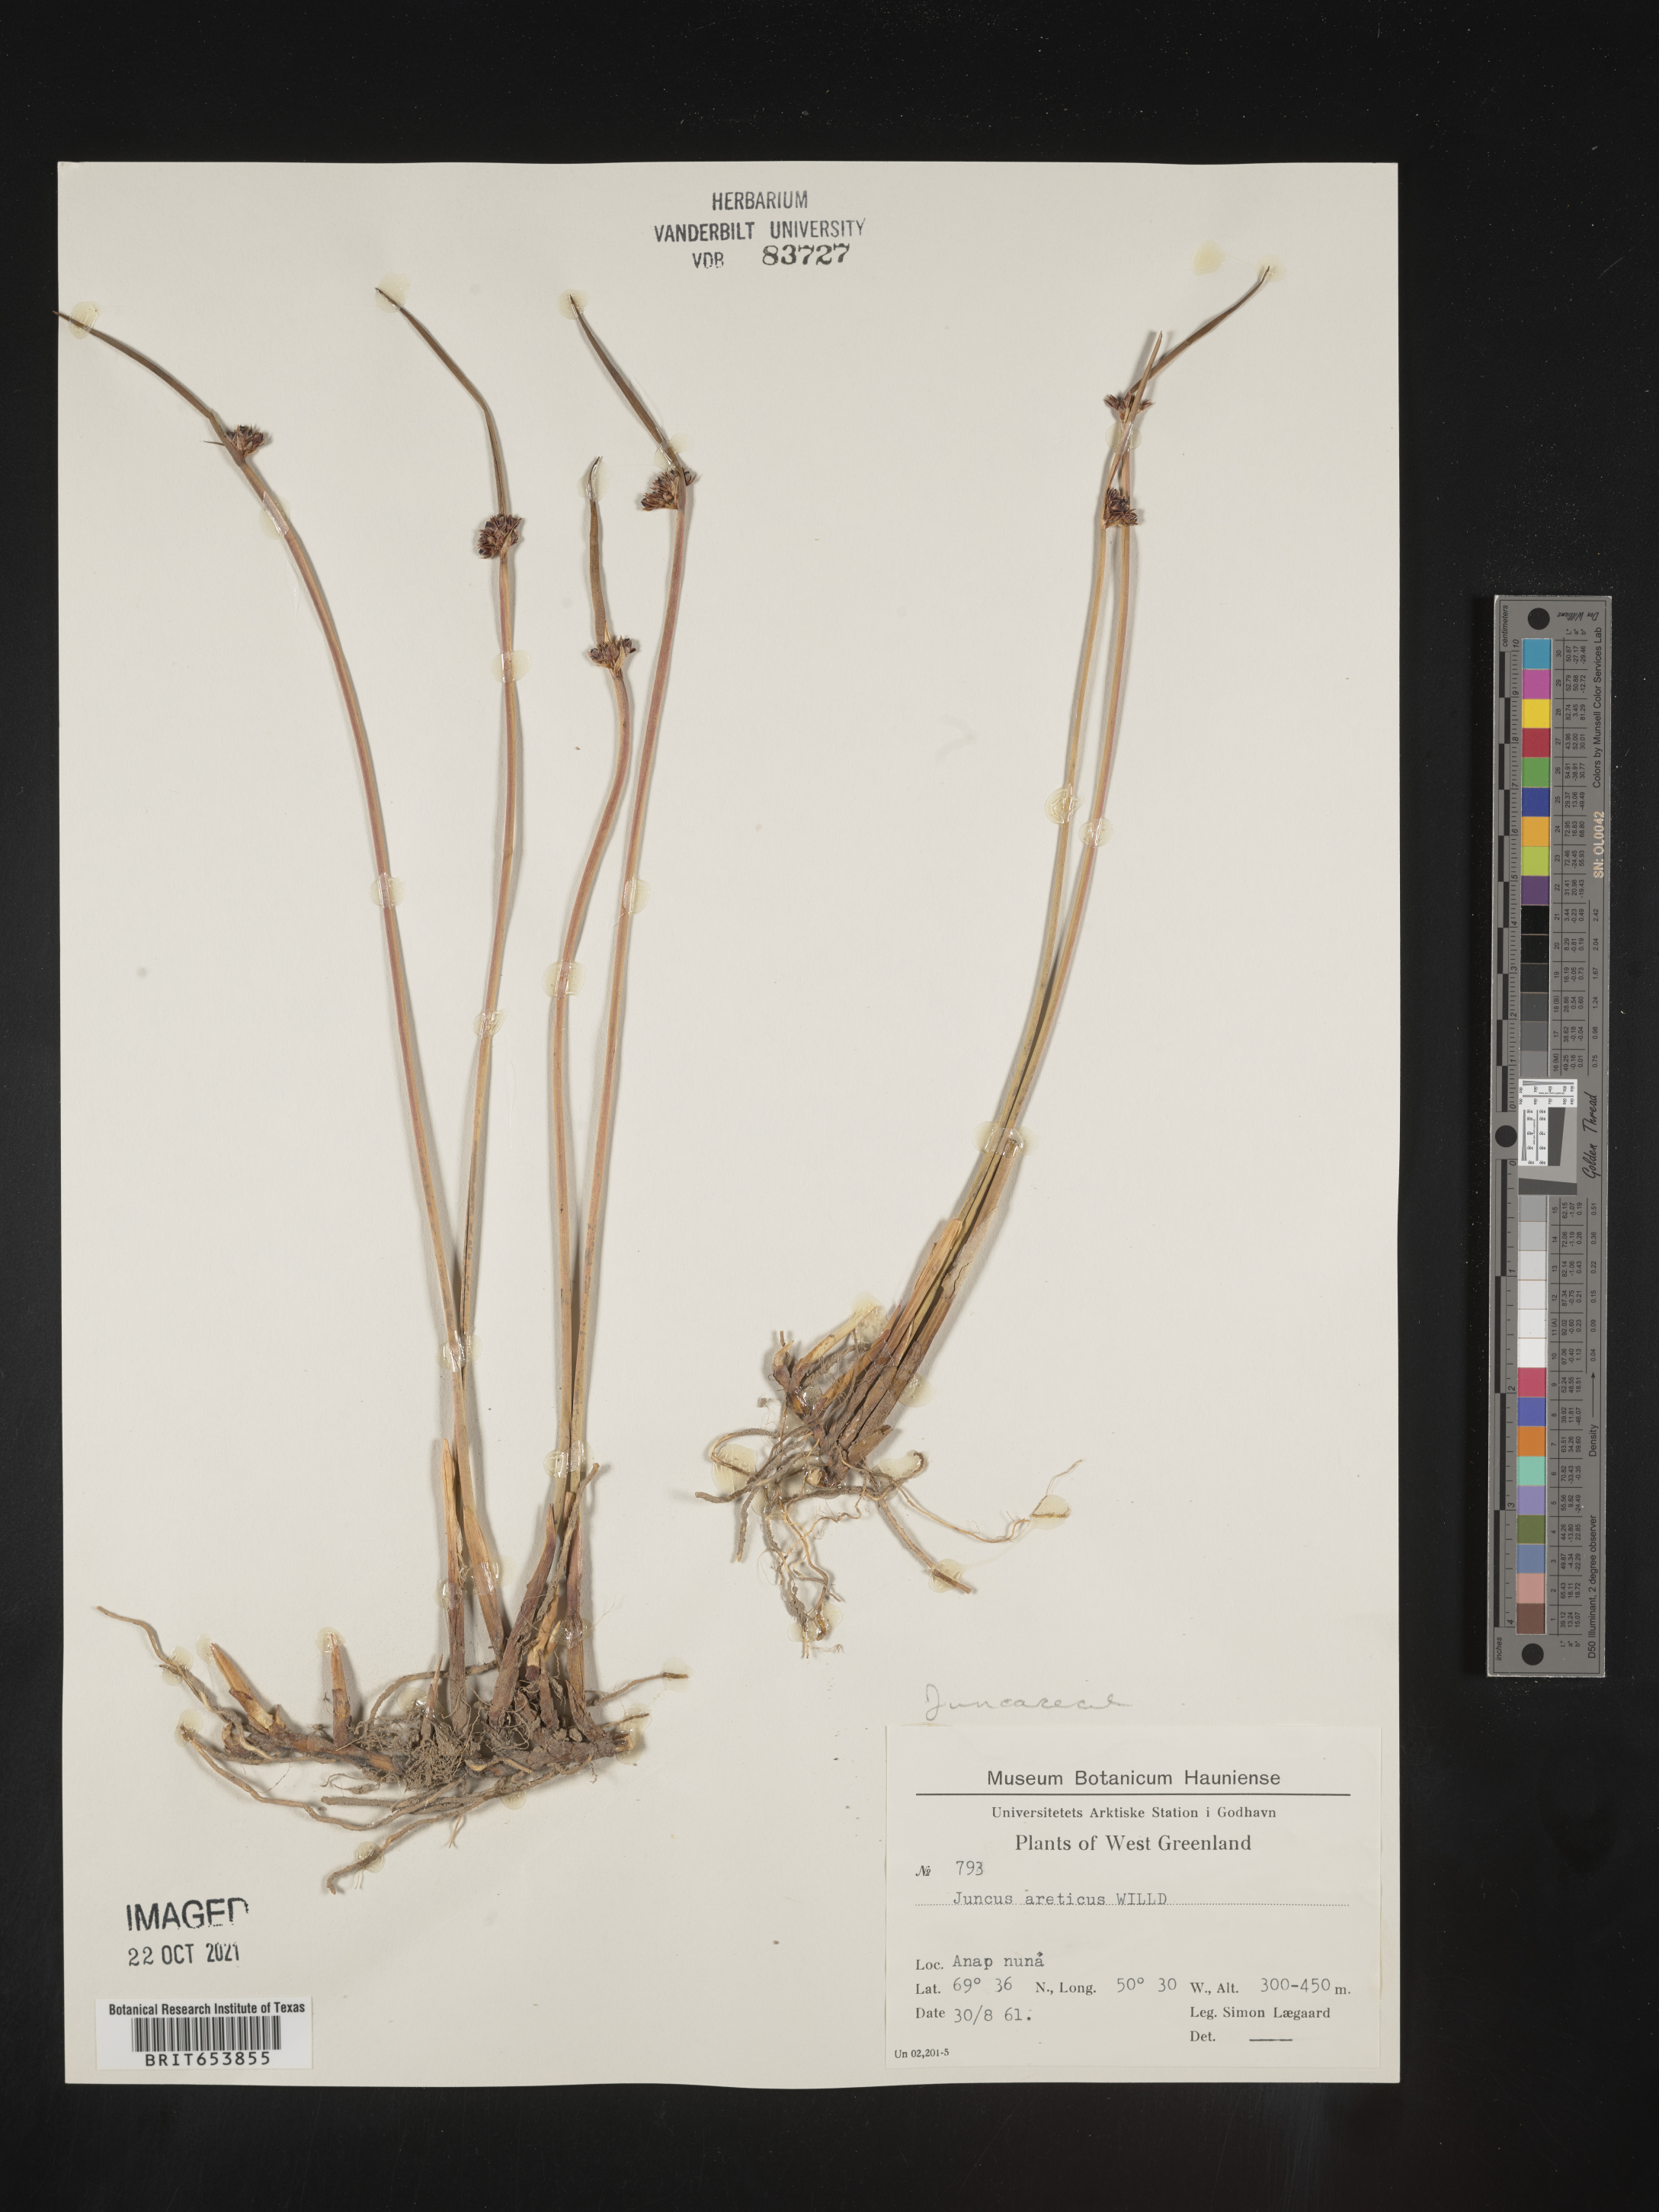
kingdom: Plantae
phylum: Tracheophyta
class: Liliopsida
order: Poales
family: Juncaceae
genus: Juncus
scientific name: Juncus arcticus
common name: Arctic rush
